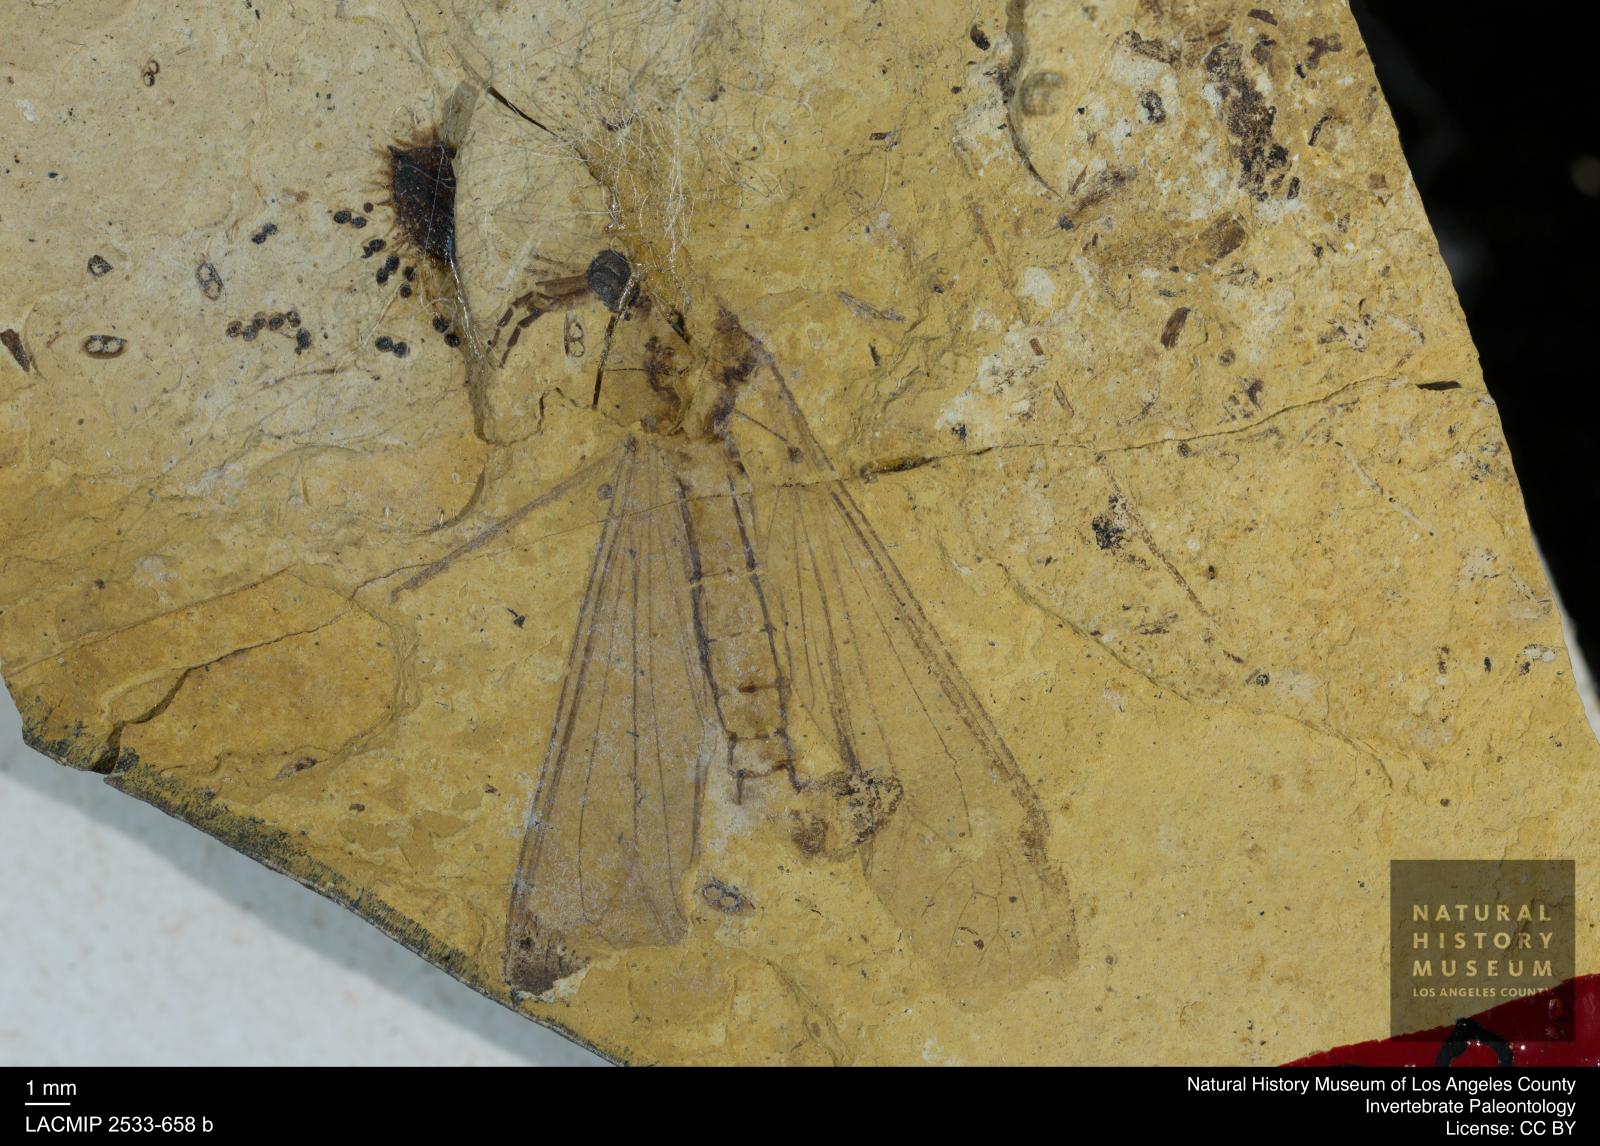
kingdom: Animalia
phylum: Arthropoda
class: Insecta
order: Diptera
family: Tipulidae
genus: Tipula
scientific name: Tipula peusi
